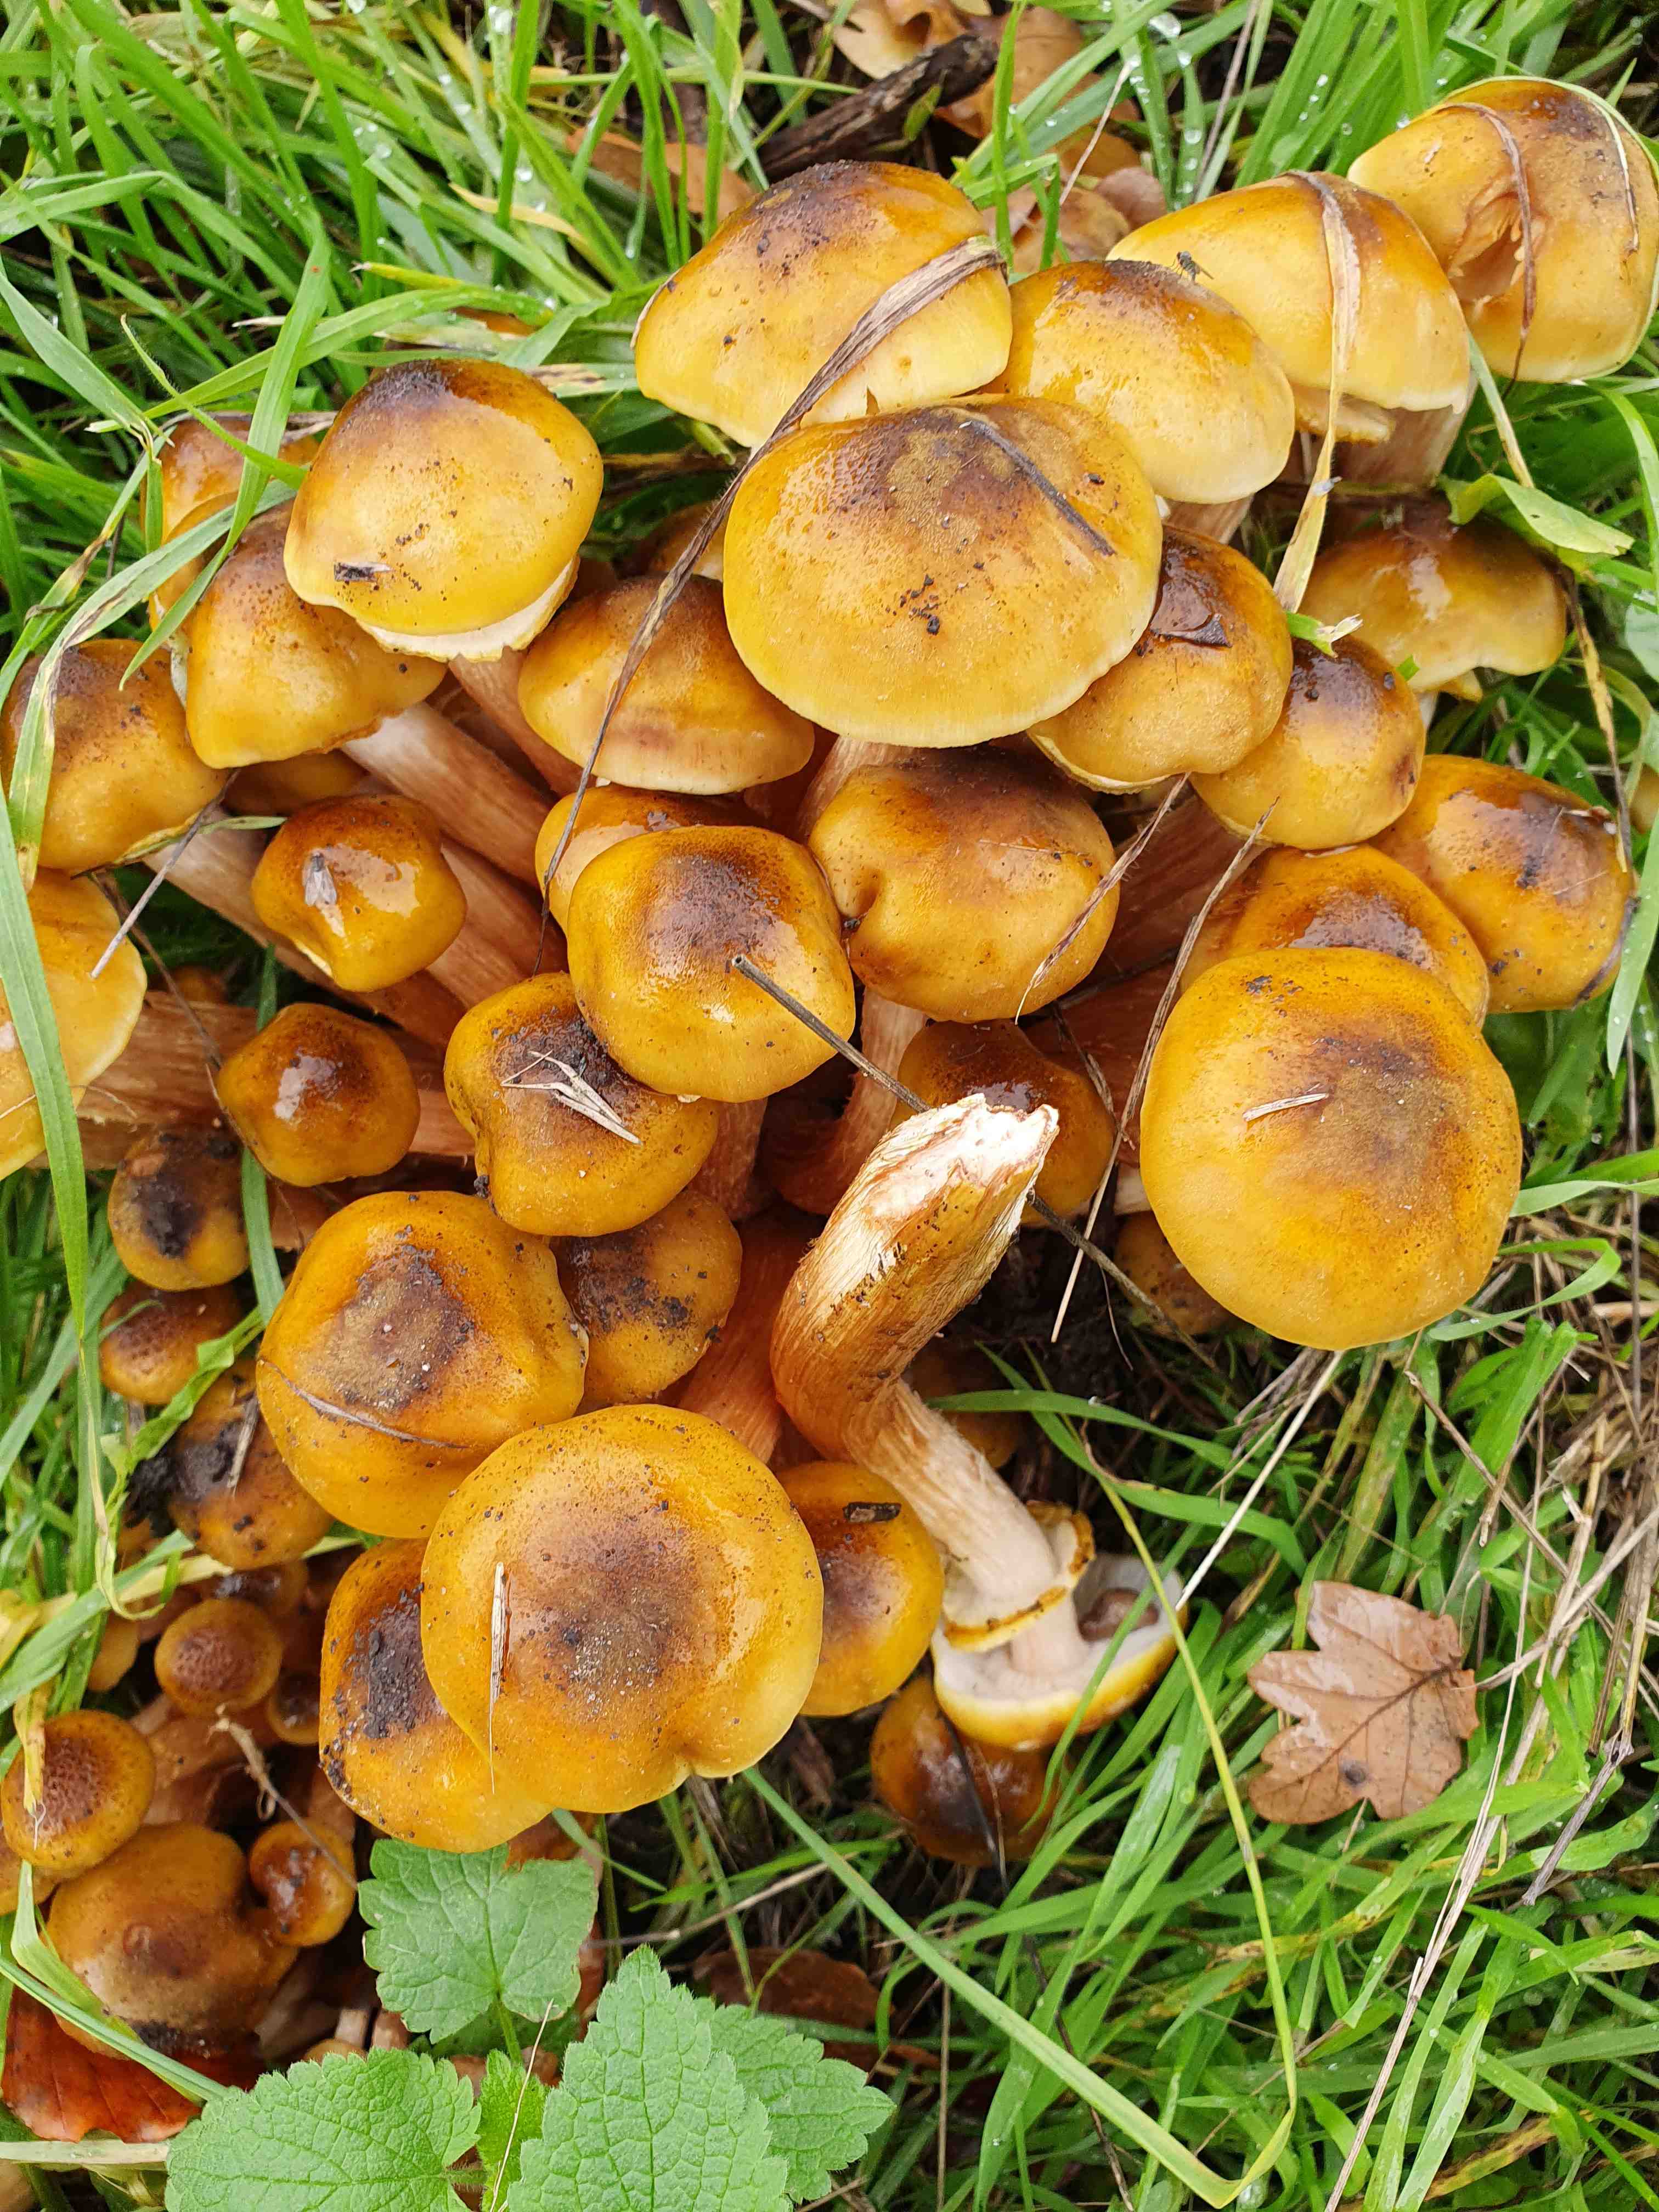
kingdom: Fungi
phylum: Basidiomycota
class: Agaricomycetes
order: Agaricales
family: Physalacriaceae
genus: Armillaria
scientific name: Armillaria mellea
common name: ægte honningsvamp
